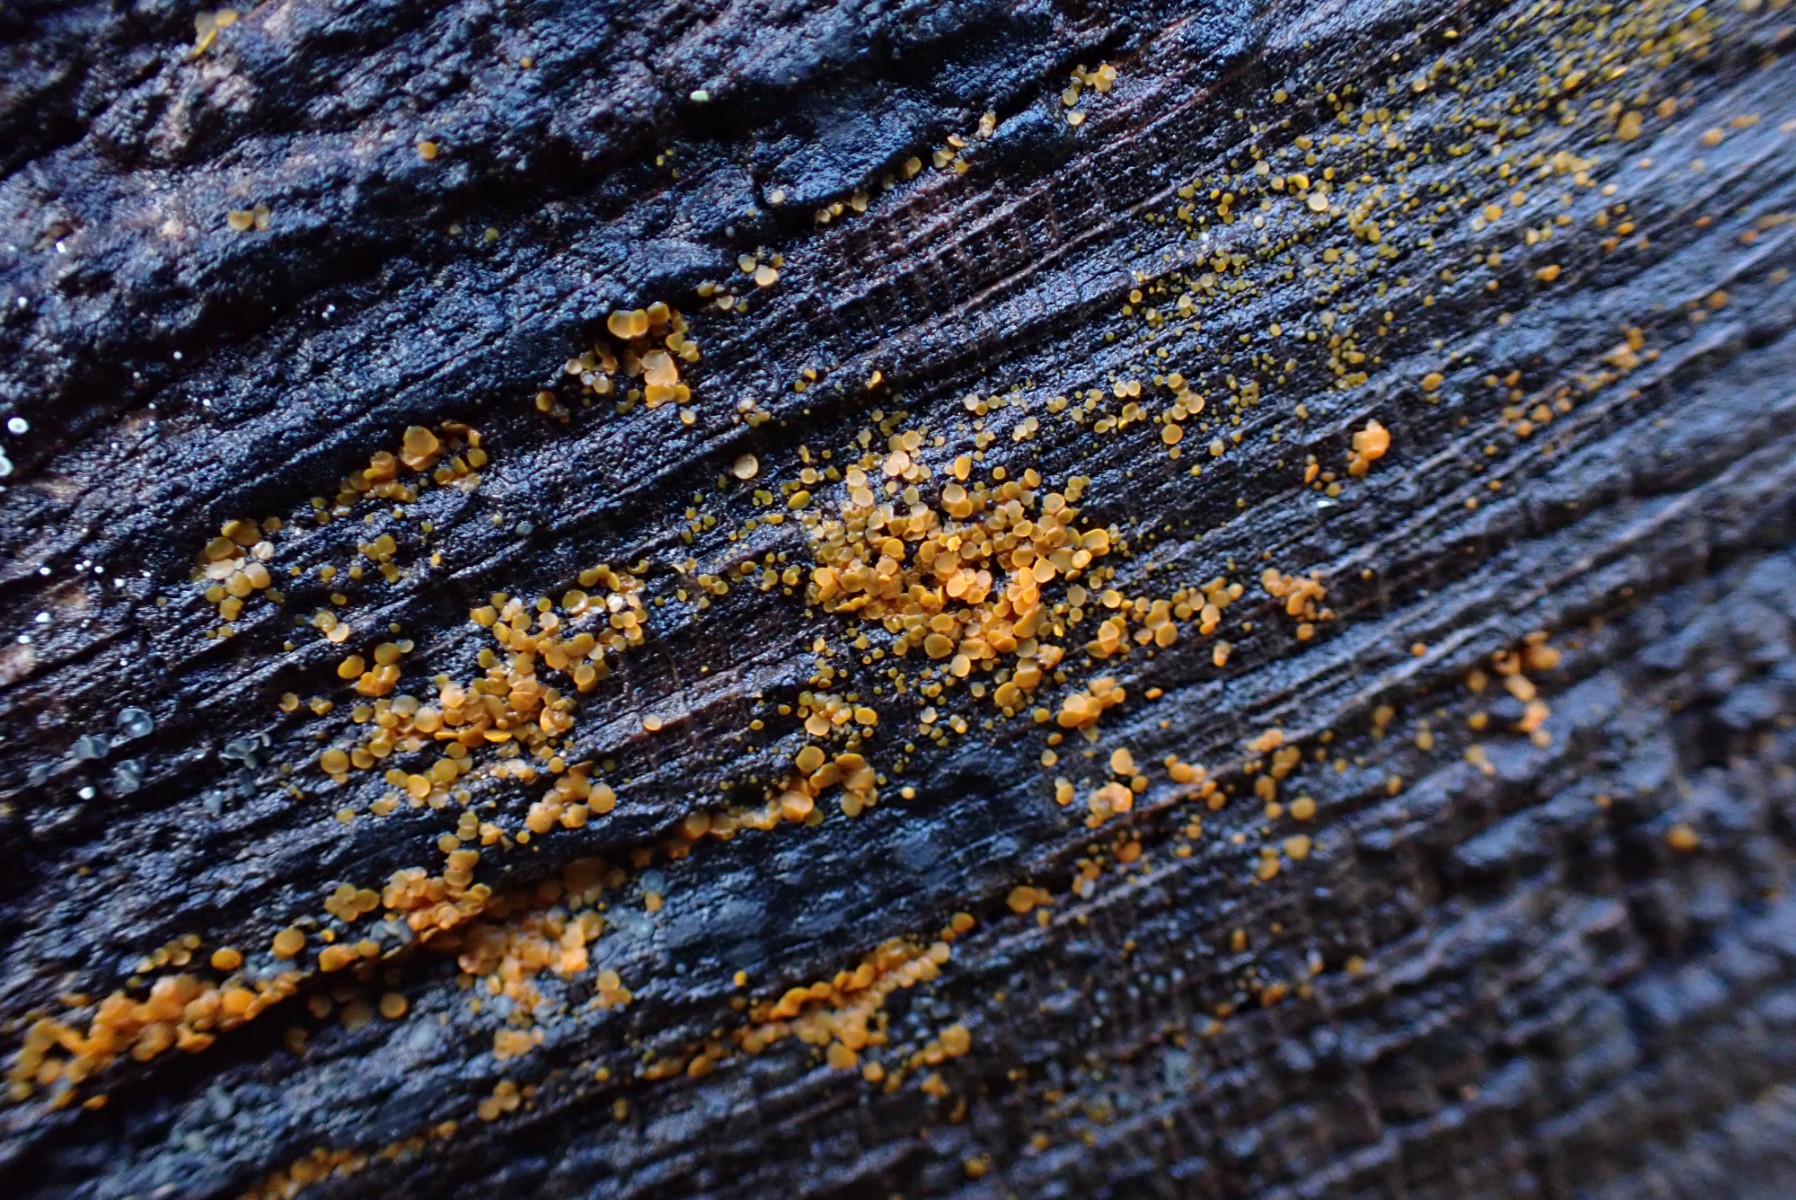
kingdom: Fungi
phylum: Ascomycota
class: Orbiliomycetes
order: Orbiliales
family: Orbiliaceae
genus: Orbilia
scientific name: Orbilia xanthostigma
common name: krumsporet voksskive
